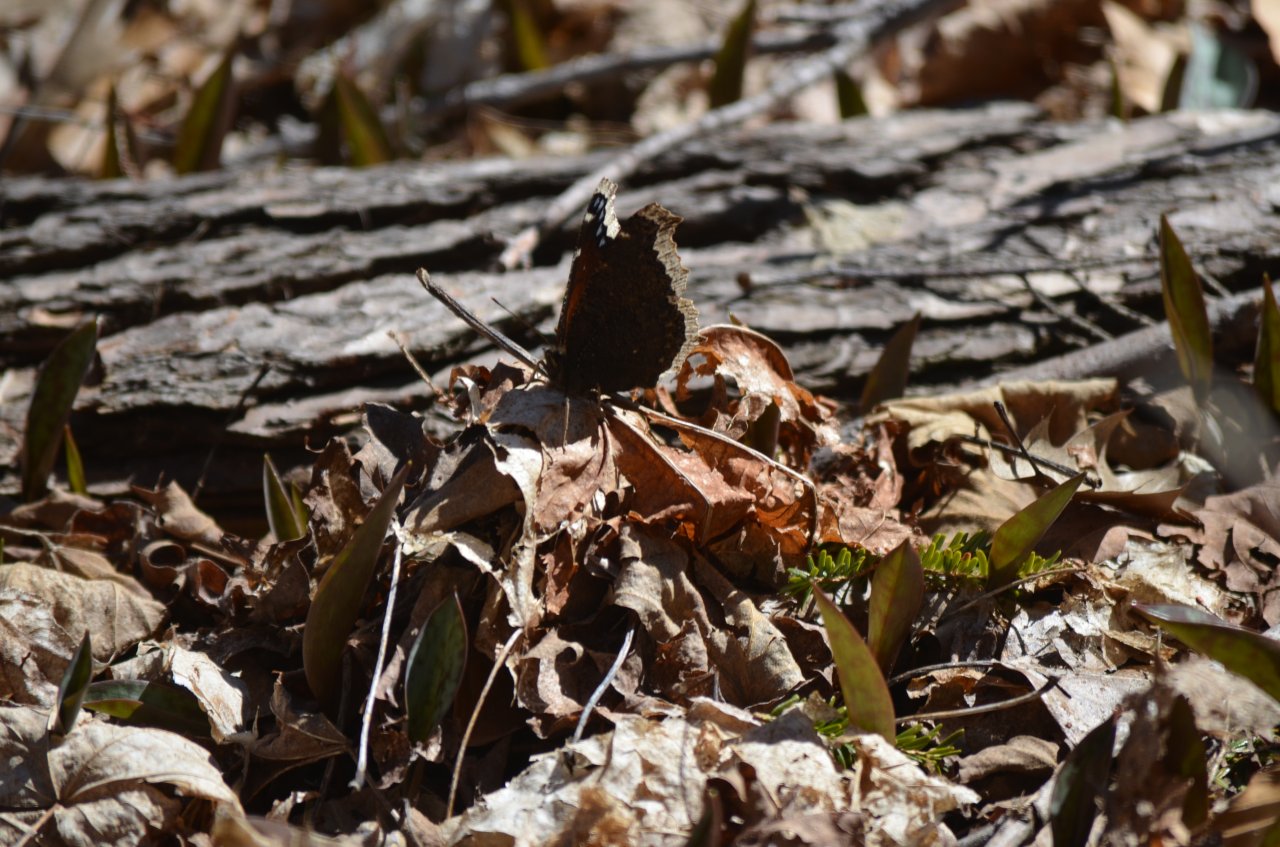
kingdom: Animalia
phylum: Arthropoda
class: Insecta
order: Lepidoptera
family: Nymphalidae
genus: Nymphalis
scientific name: Nymphalis antiopa
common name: Mourning Cloak
